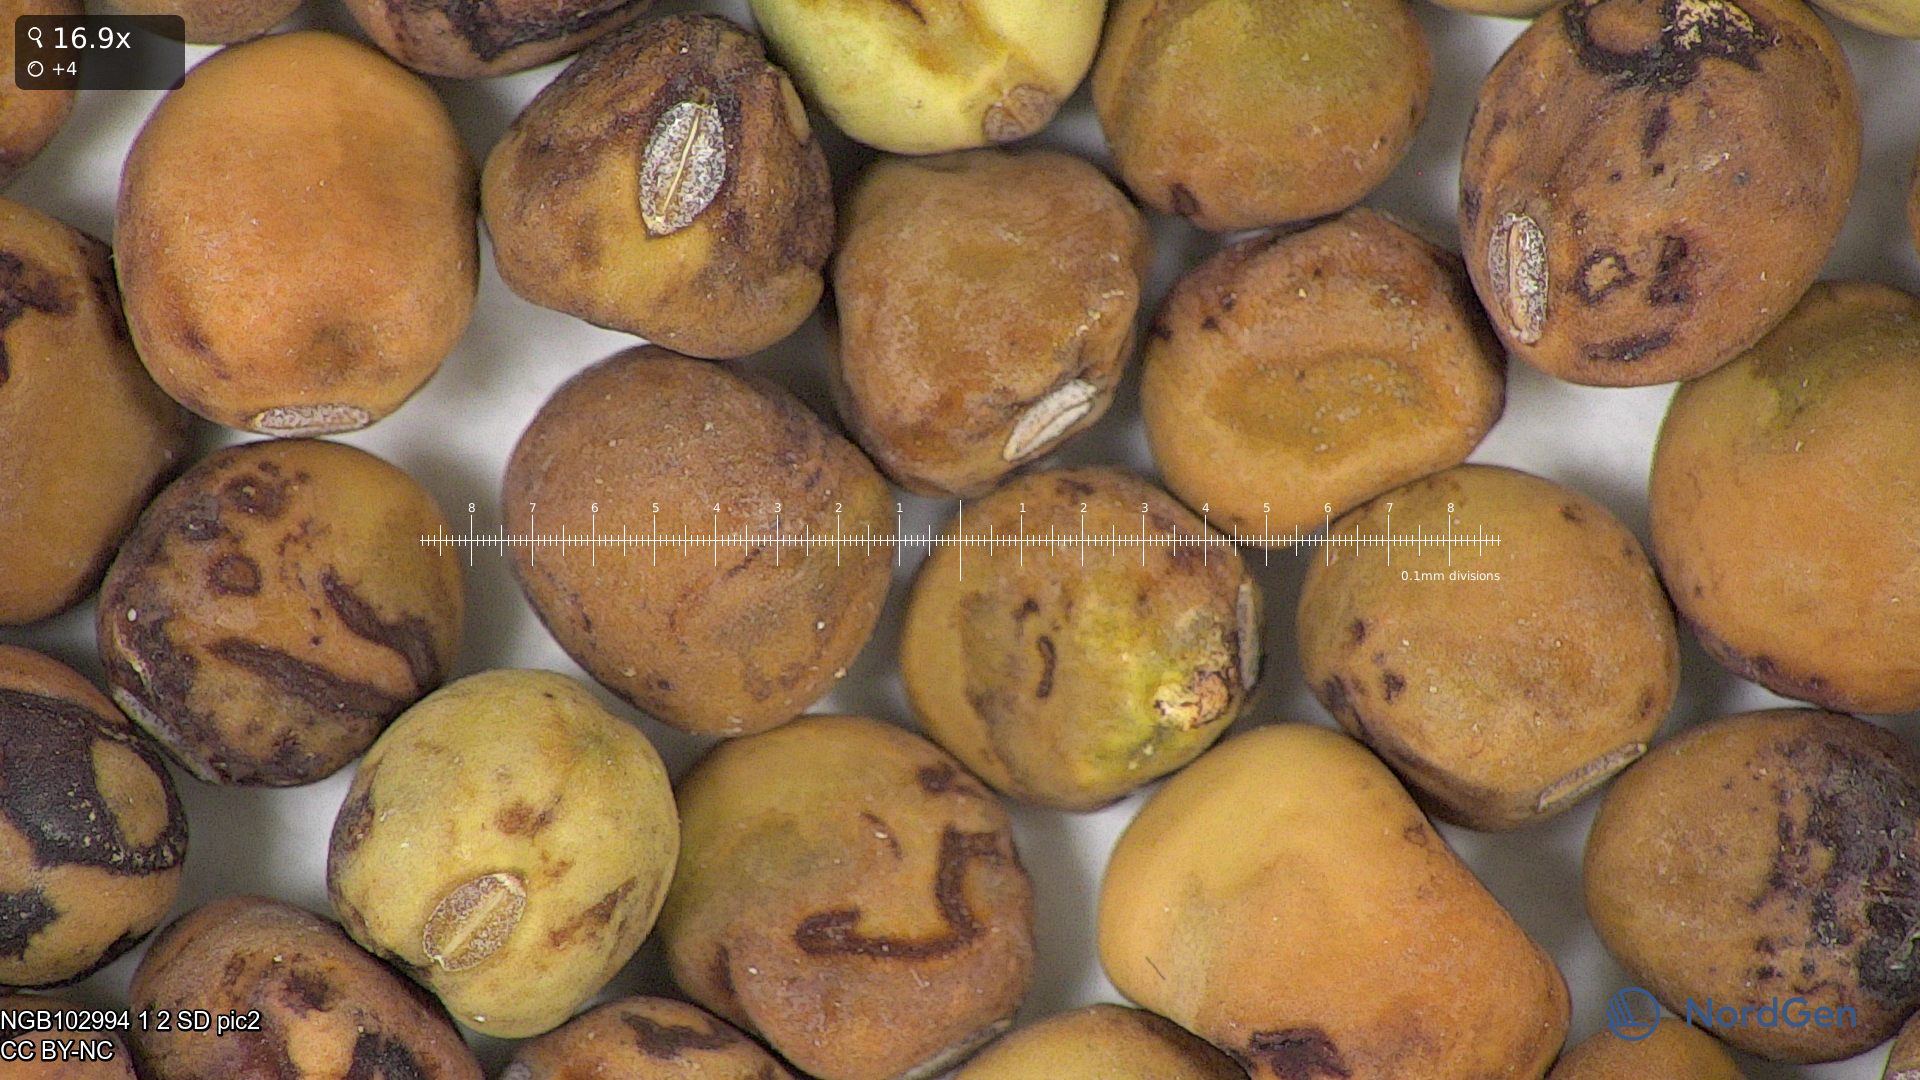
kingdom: Plantae
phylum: Tracheophyta
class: Magnoliopsida
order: Fabales
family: Fabaceae
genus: Lathyrus
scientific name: Lathyrus oleraceus
